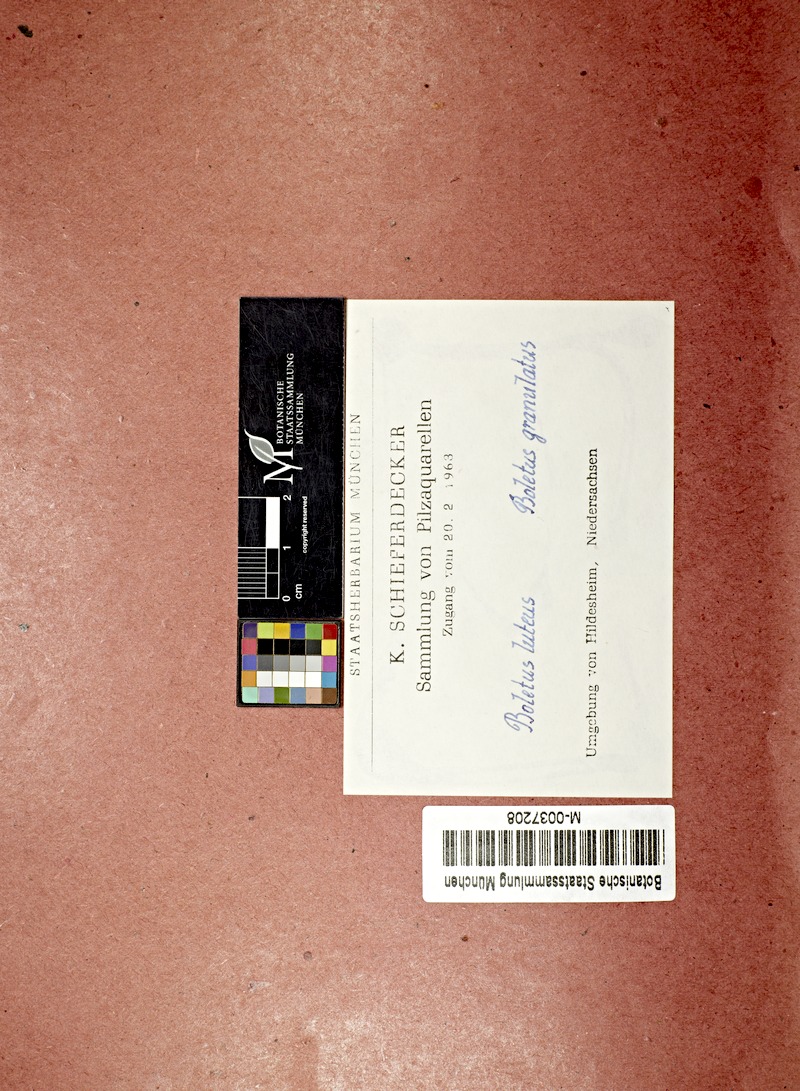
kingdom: Fungi
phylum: Basidiomycota
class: Agaricomycetes
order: Boletales
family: Suillaceae
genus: Suillus
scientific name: Suillus luteus
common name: Slippery jack
